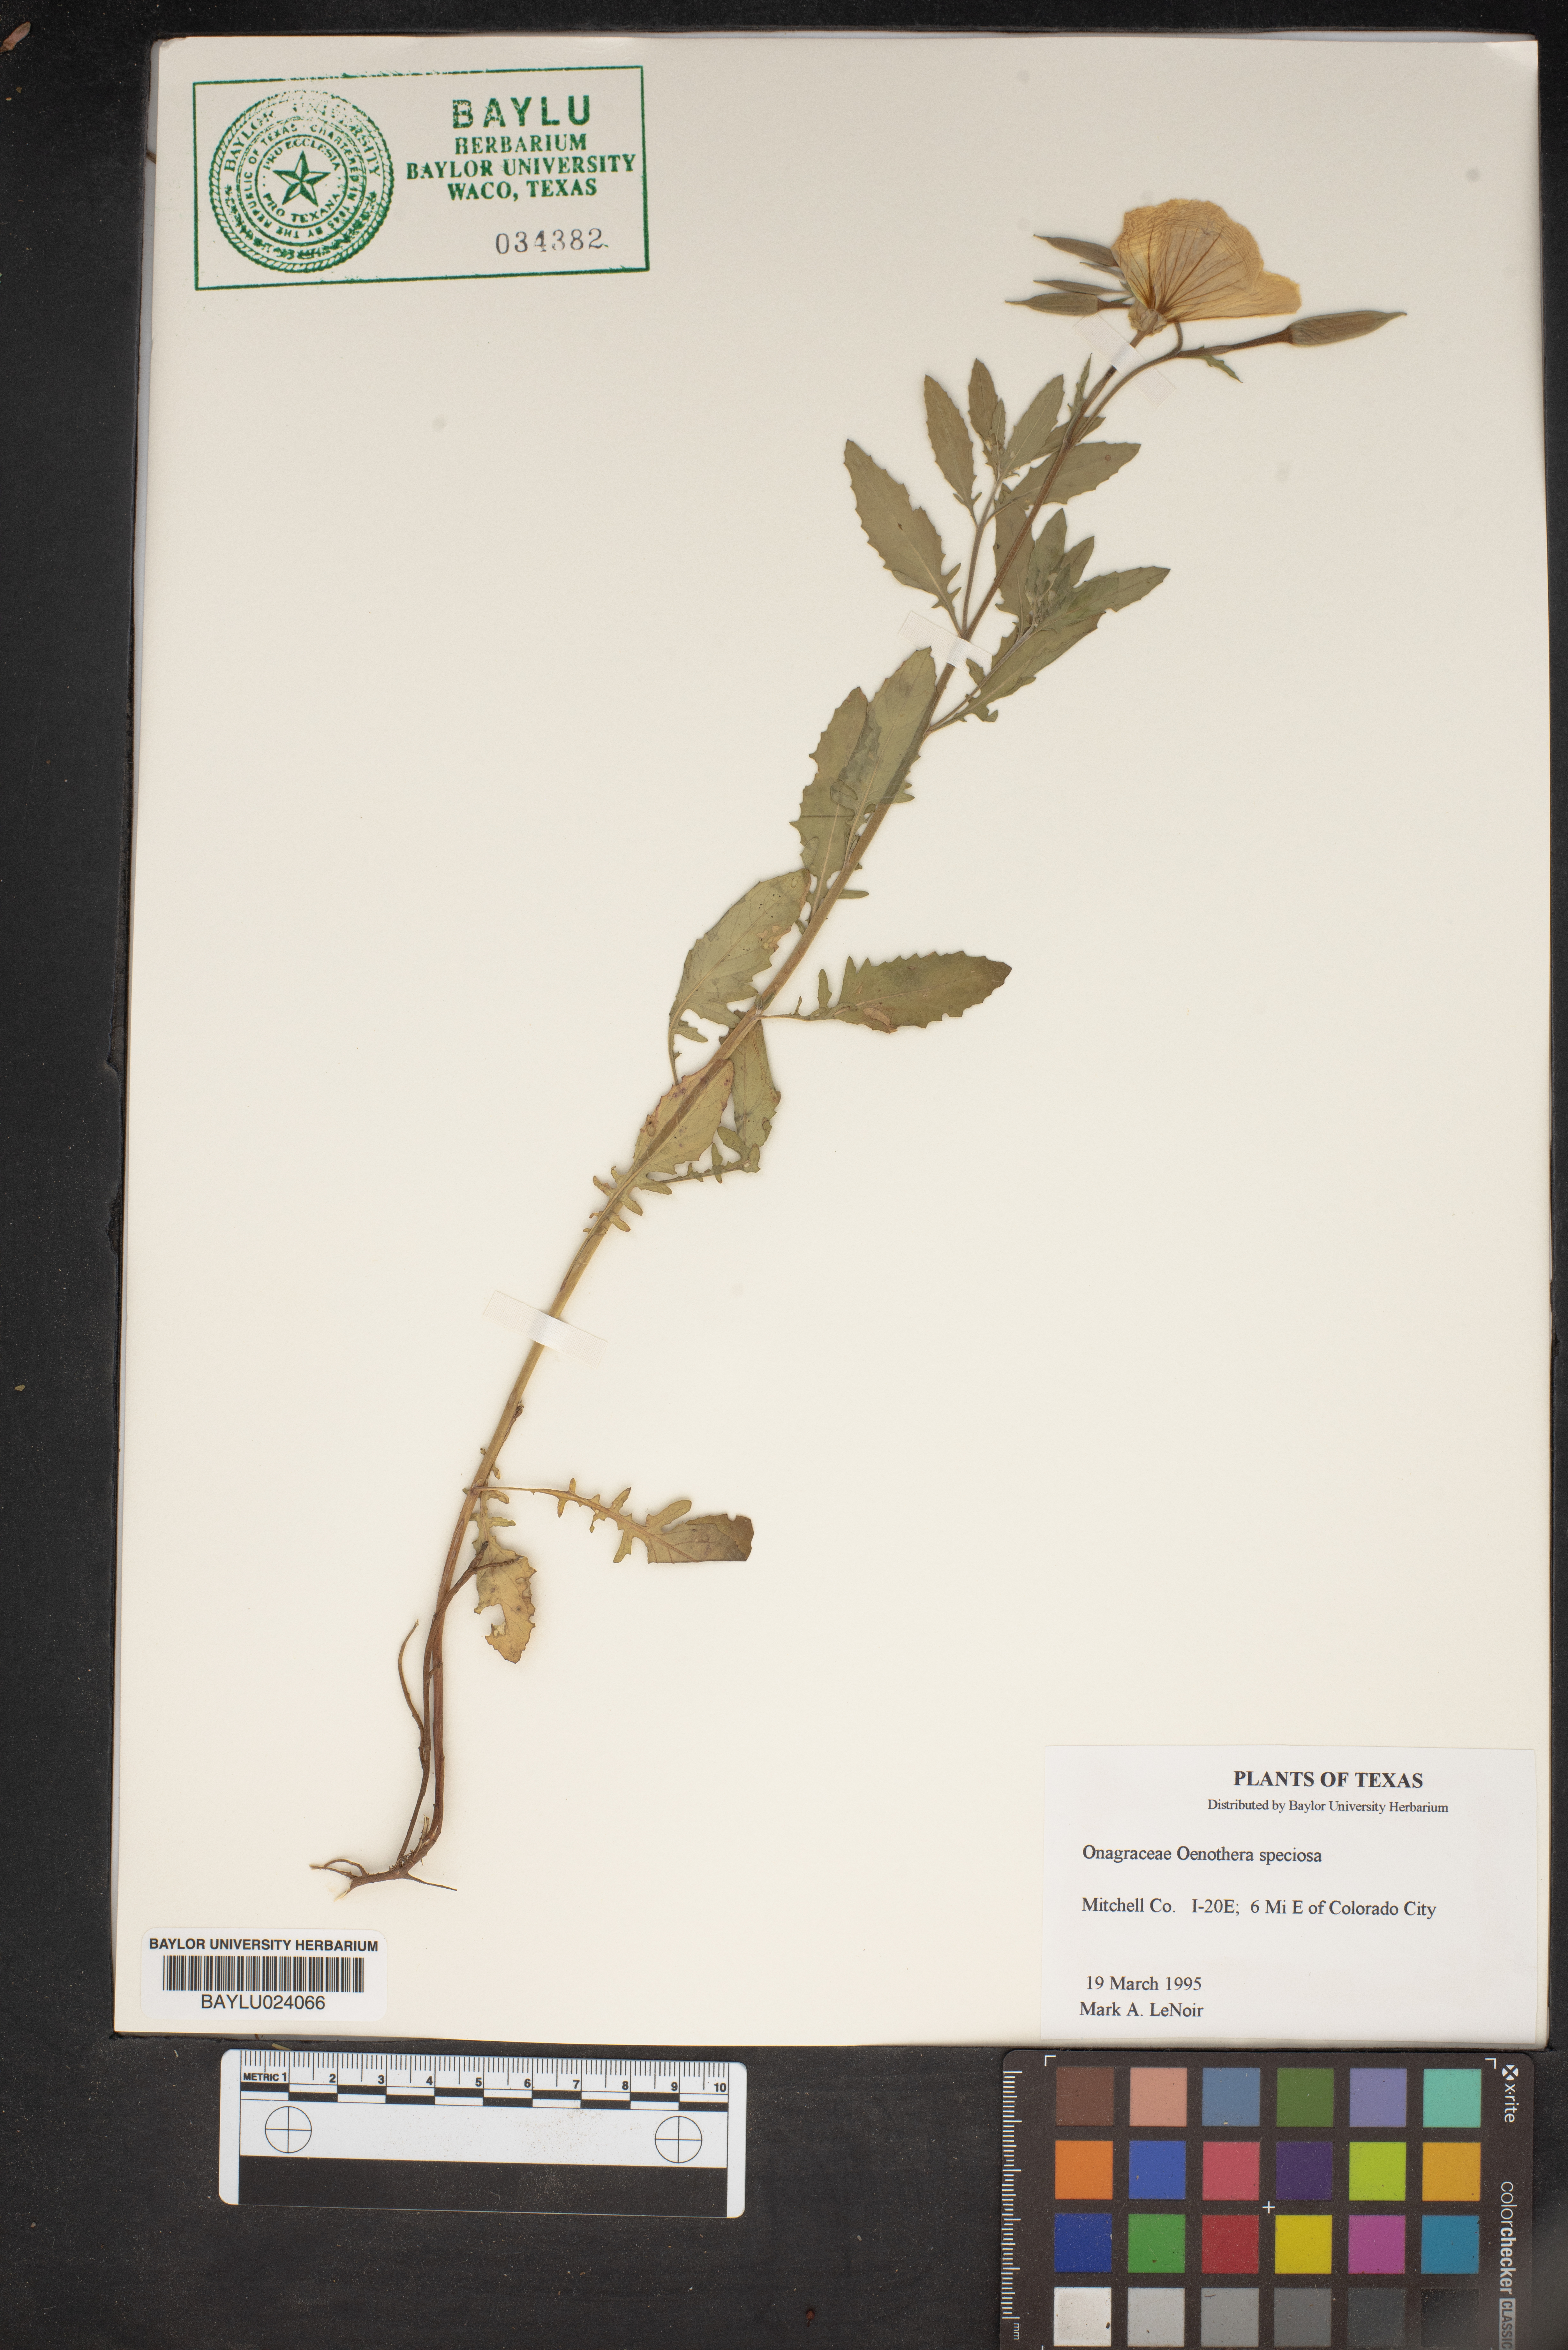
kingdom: Plantae
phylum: Tracheophyta
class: Magnoliopsida
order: Myrtales
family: Onagraceae
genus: Oenothera
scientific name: Oenothera speciosa
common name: White evening-primrose
